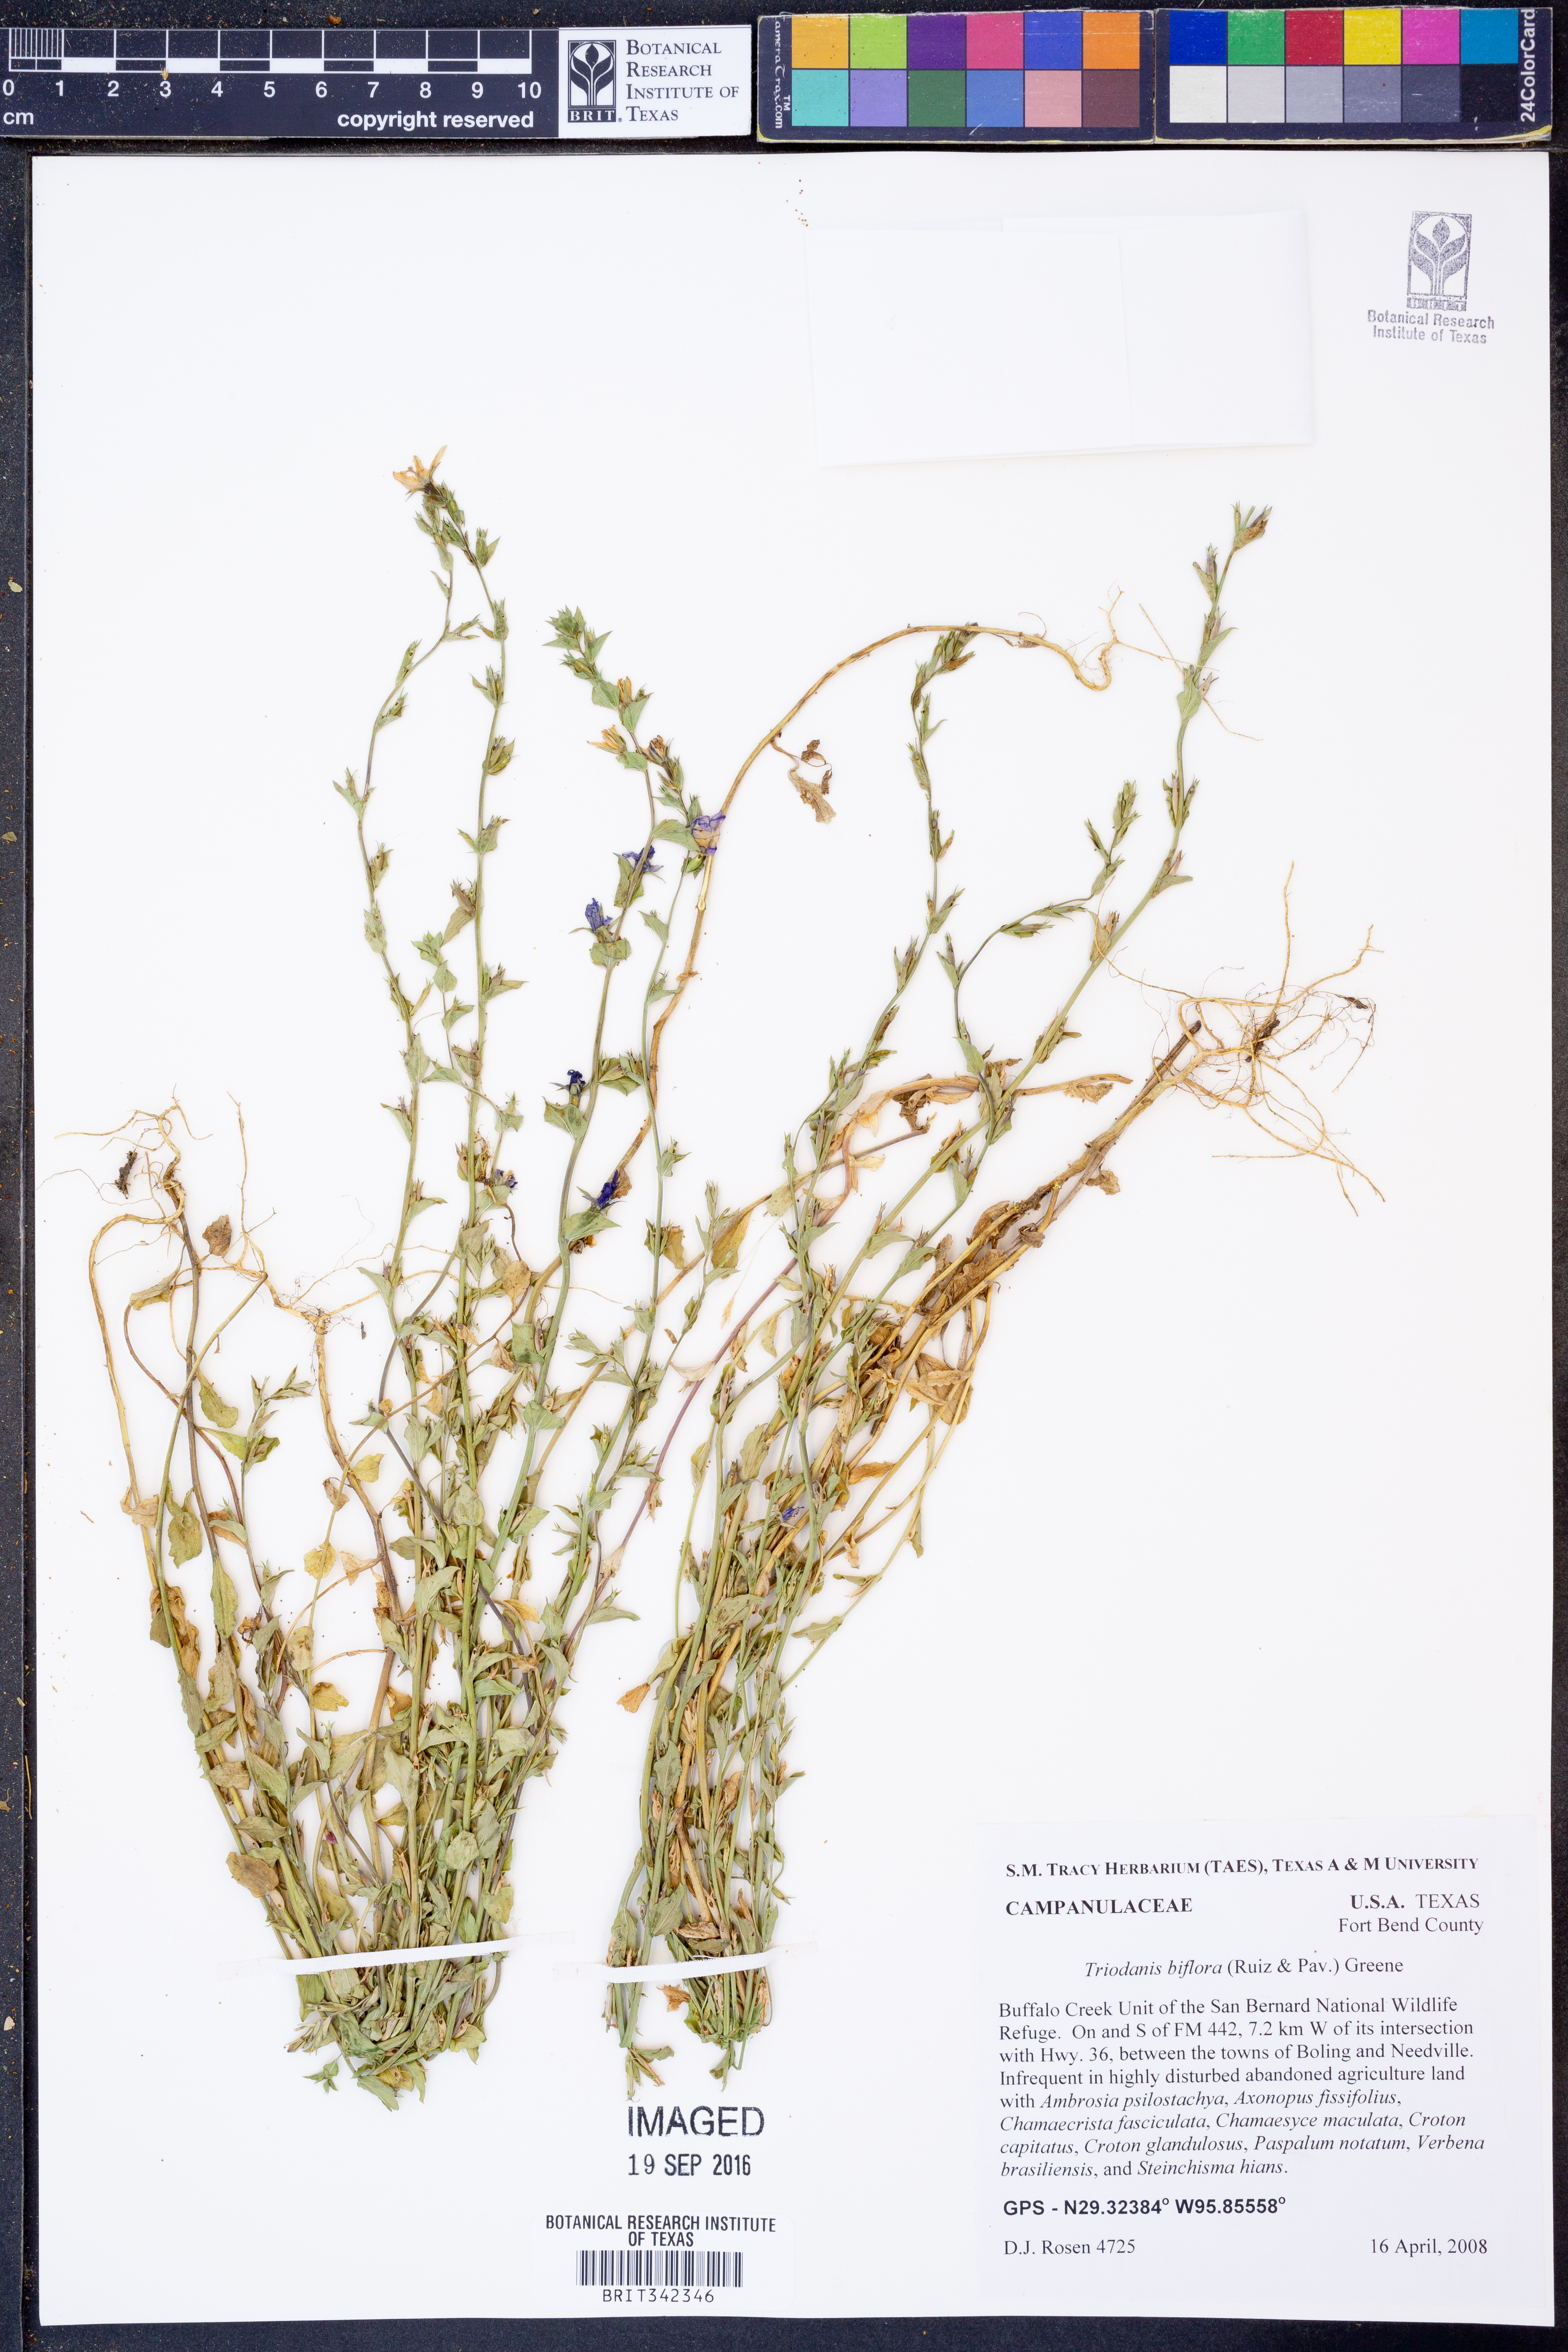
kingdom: Plantae
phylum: Tracheophyta
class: Magnoliopsida
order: Asterales
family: Campanulaceae
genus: Triodanis
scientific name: Triodanis perfoliata
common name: Clasping venus' looking-glass
